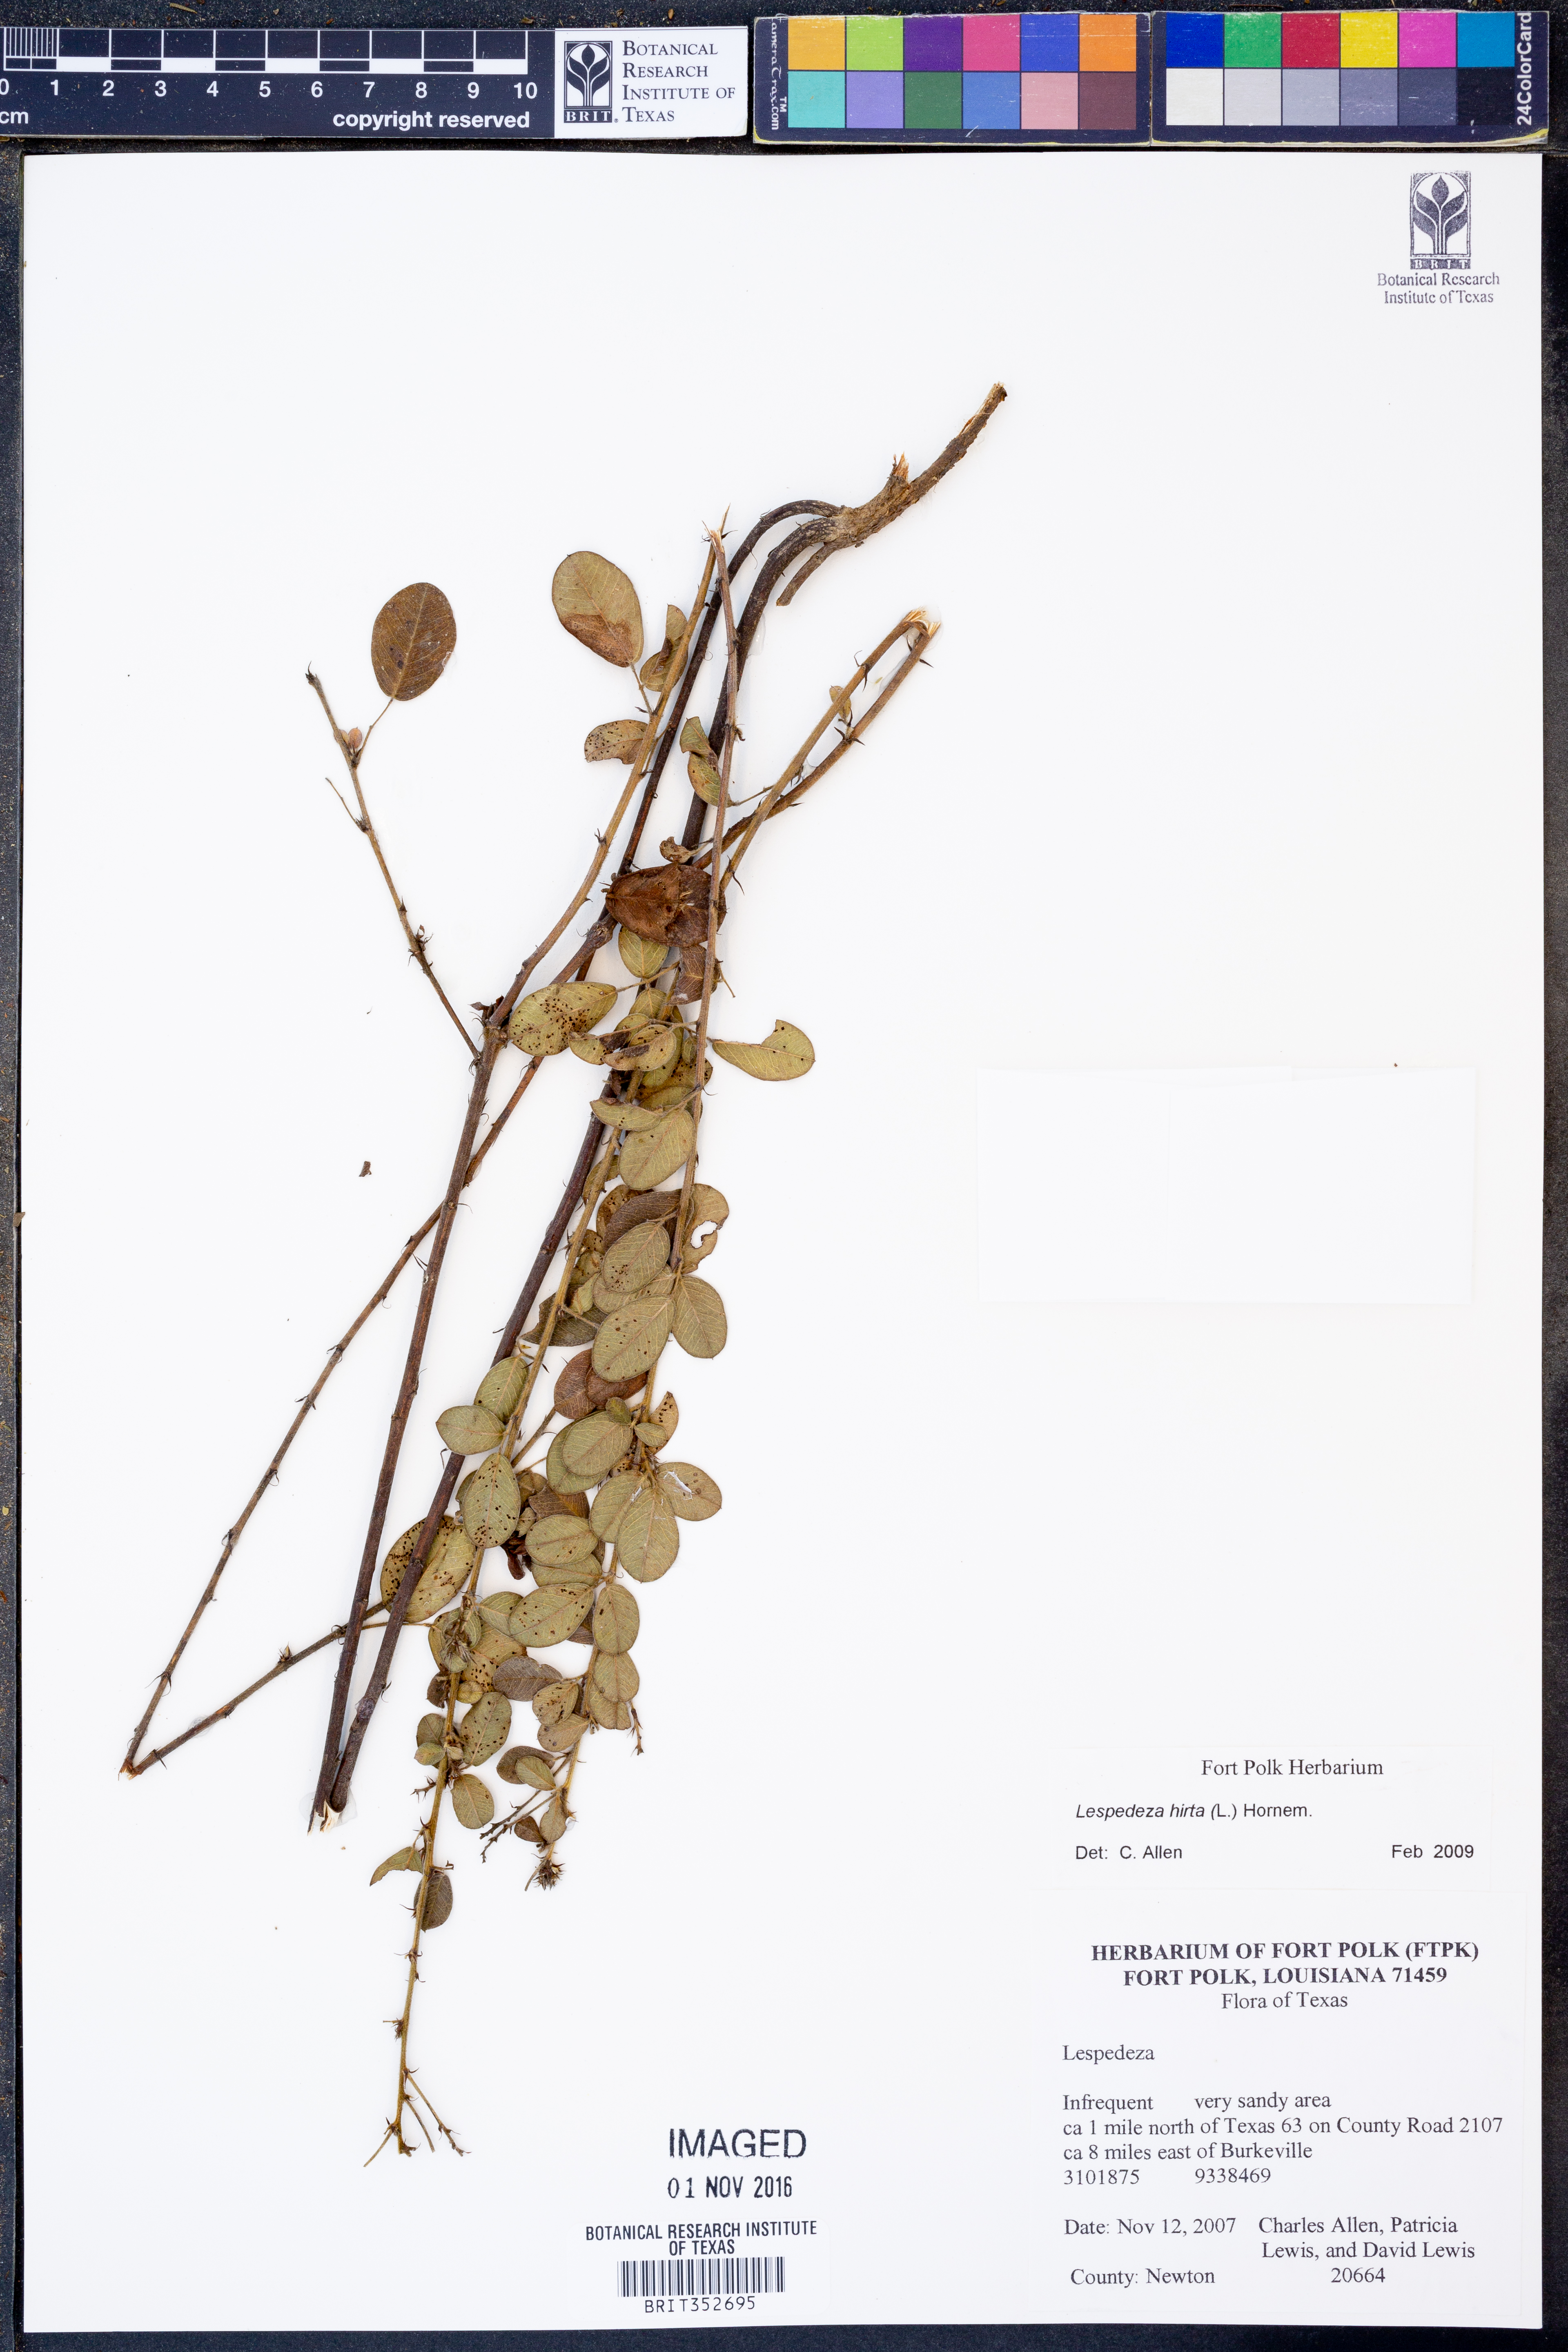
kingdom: Plantae
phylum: Tracheophyta
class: Magnoliopsida
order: Fabales
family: Fabaceae
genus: Lespedeza
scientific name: Lespedeza hirta
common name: Hairy lespedeza
